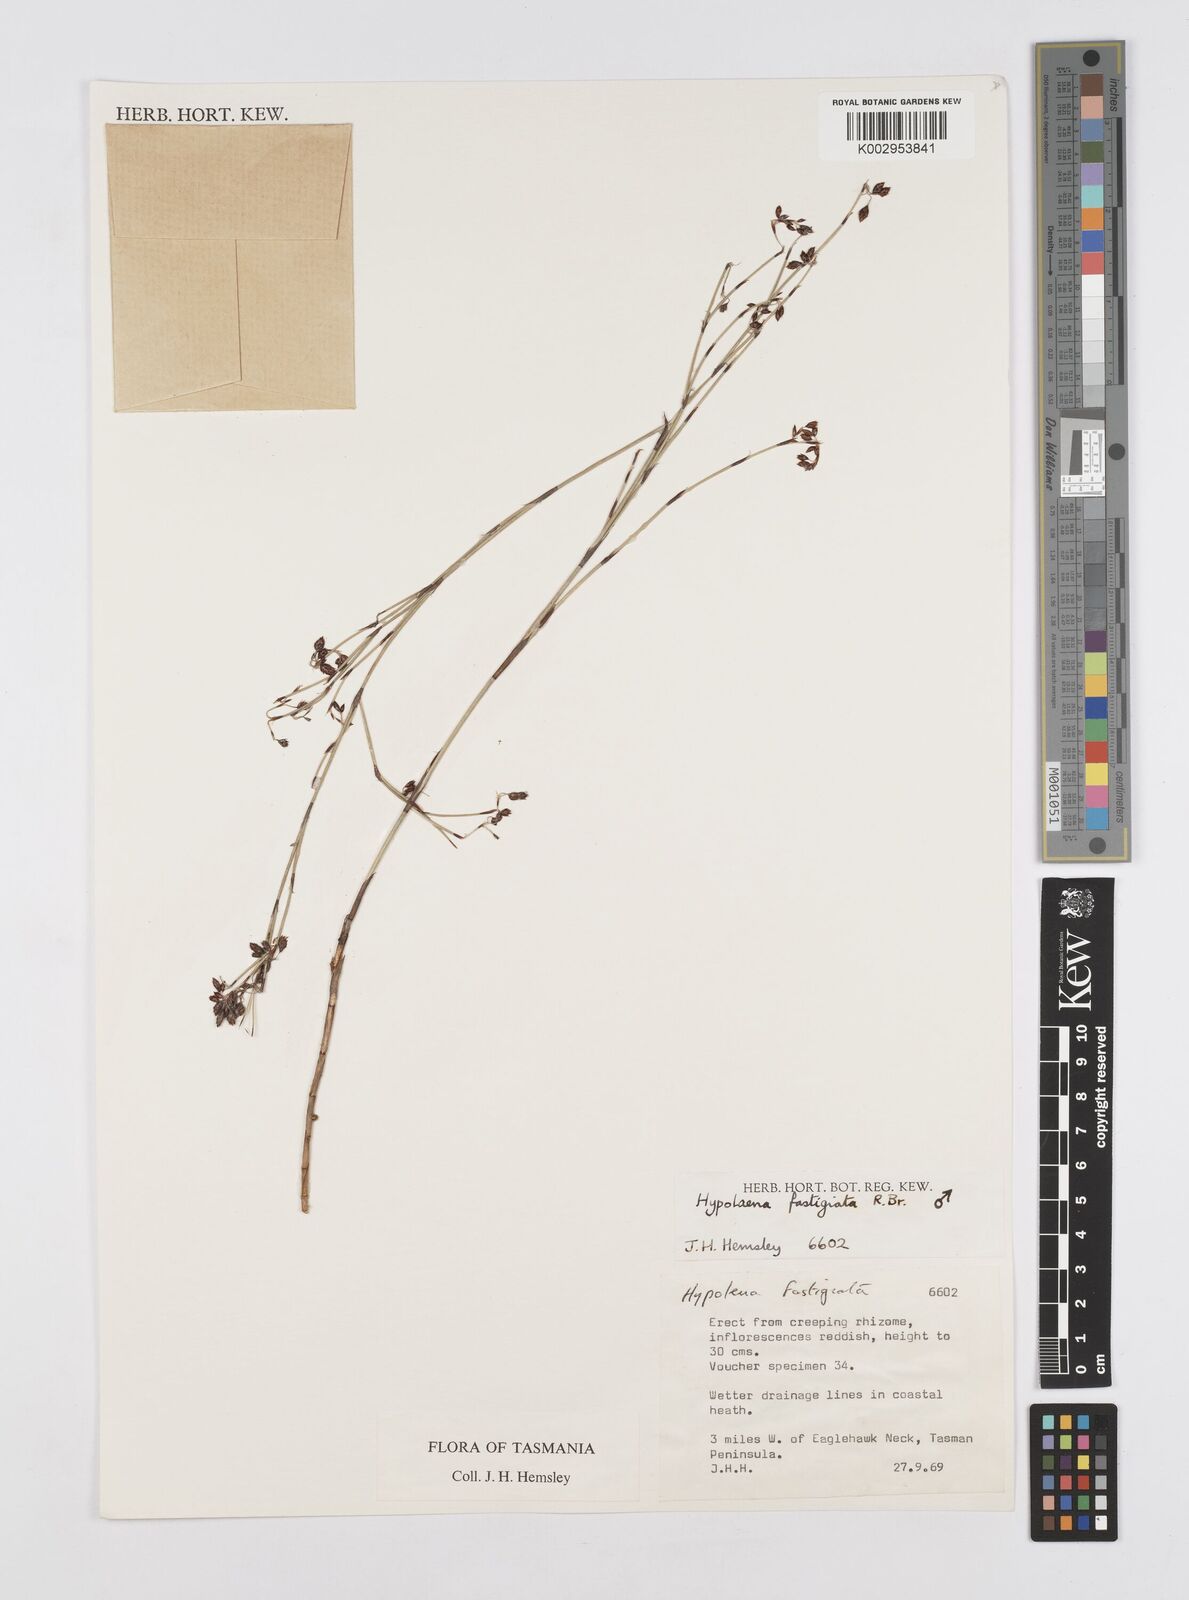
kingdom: Plantae
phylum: Tracheophyta
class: Liliopsida
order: Poales
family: Restionaceae
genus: Hypolaena
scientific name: Hypolaena fastigiata
